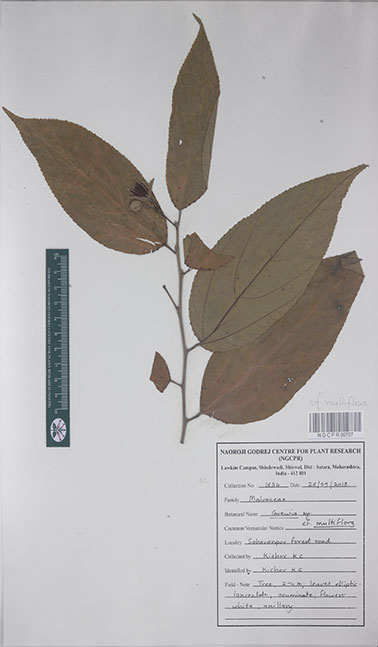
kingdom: Plantae
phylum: Tracheophyta
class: Magnoliopsida
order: Malvales
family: Malvaceae
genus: Grewia
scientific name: Grewia multiflora
